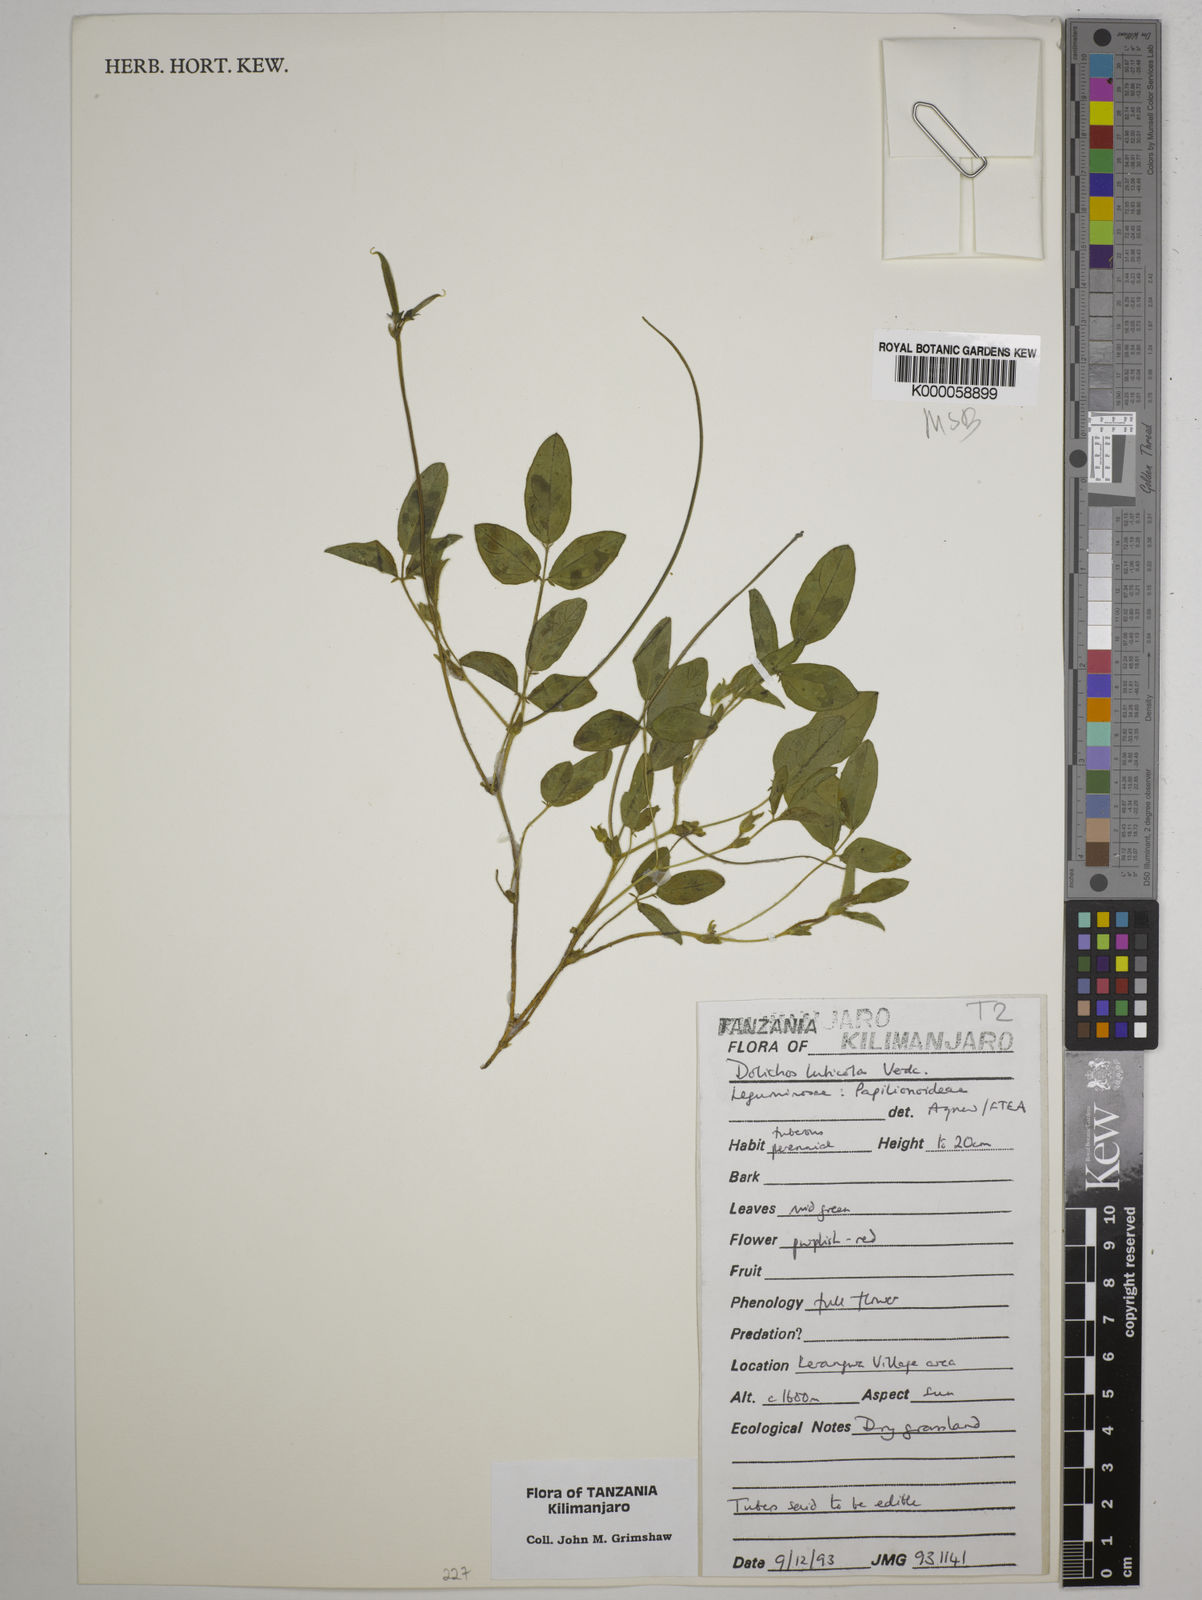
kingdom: Plantae
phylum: Tracheophyta
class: Magnoliopsida
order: Fabales
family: Fabaceae
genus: Dolichos
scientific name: Dolichos luticola
